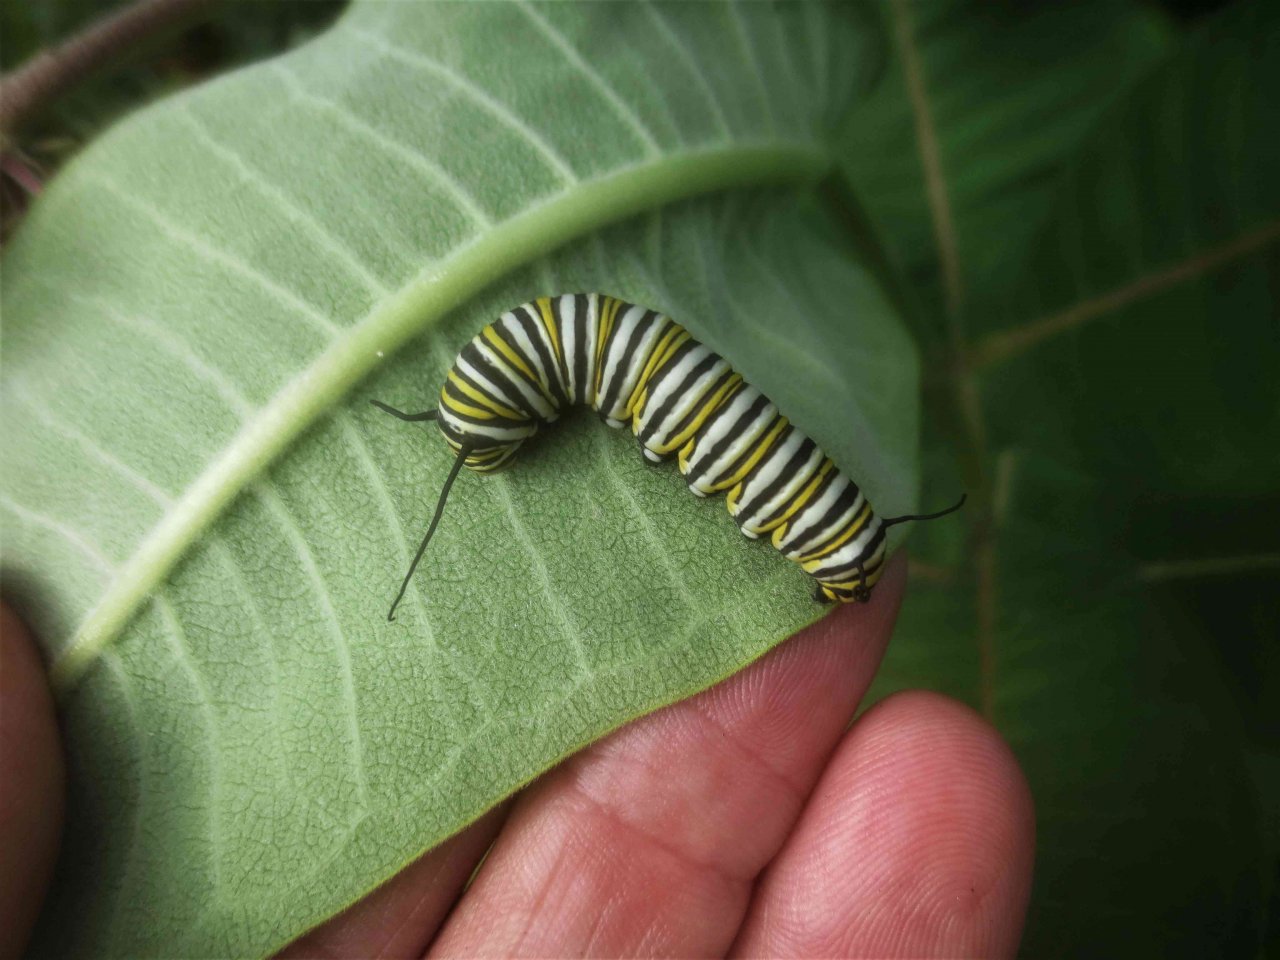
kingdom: Animalia
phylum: Arthropoda
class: Insecta
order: Lepidoptera
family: Nymphalidae
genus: Danaus
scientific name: Danaus plexippus
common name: Monarch
